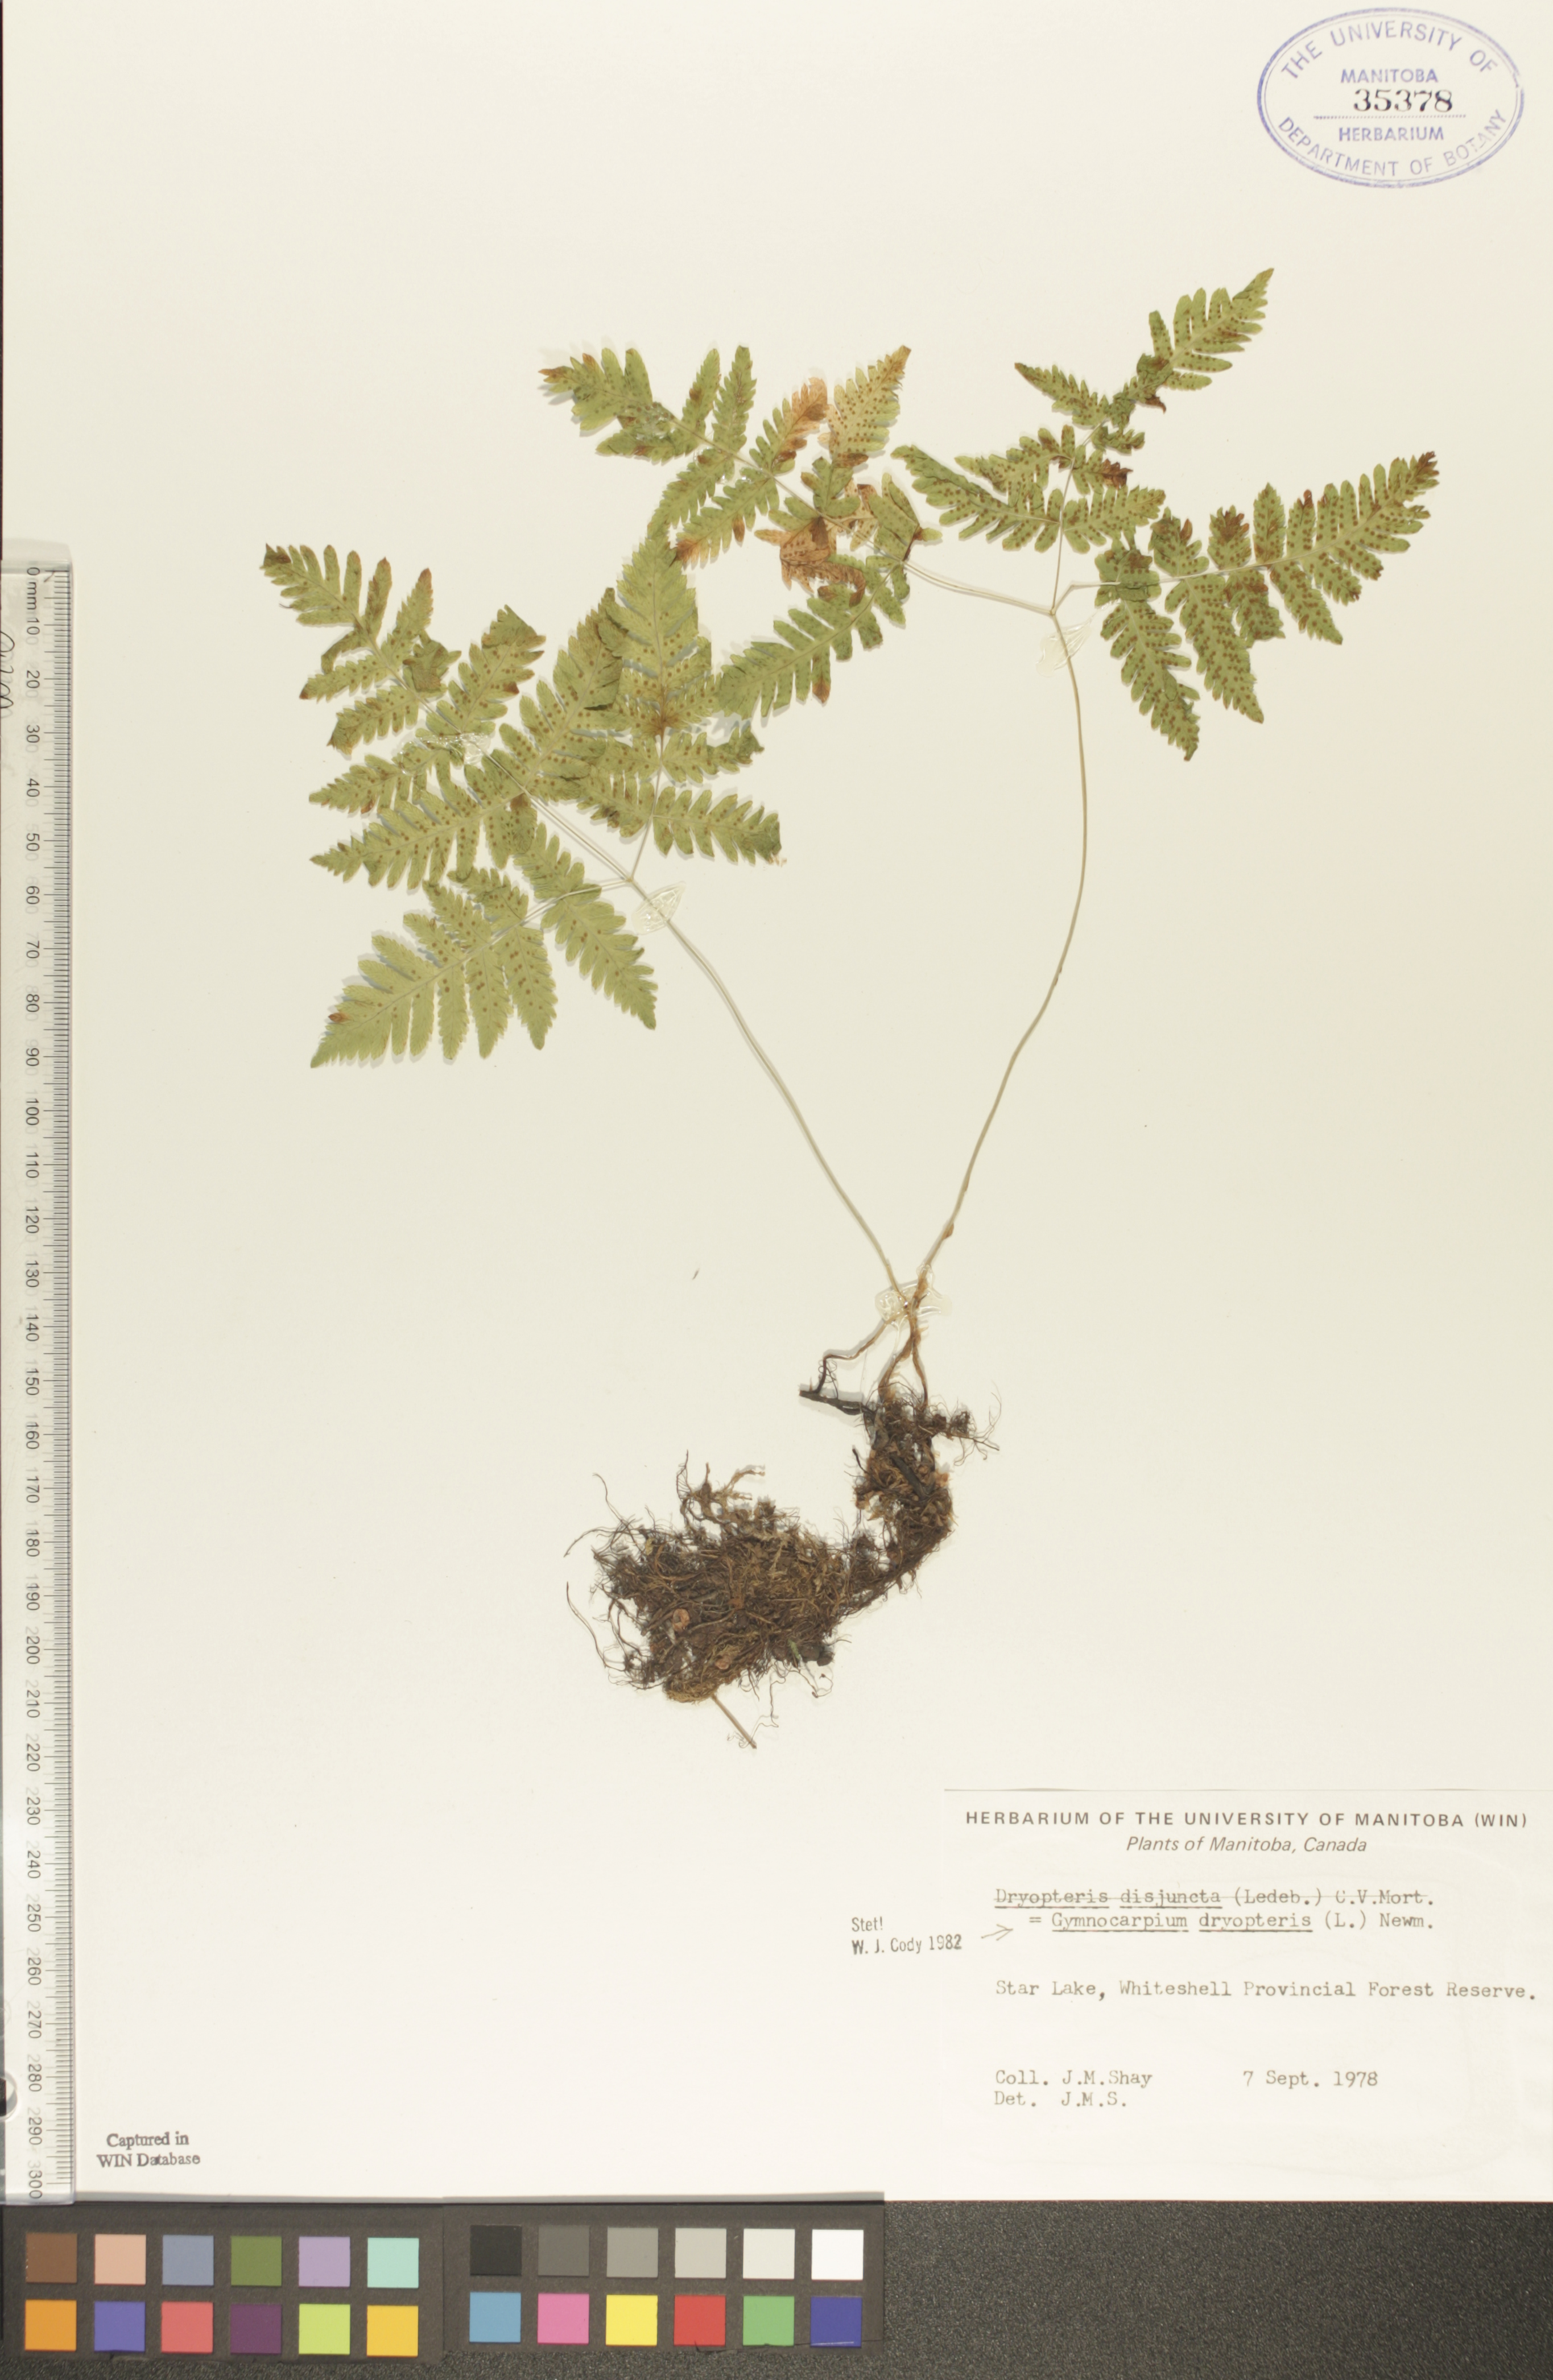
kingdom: Plantae
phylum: Tracheophyta
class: Polypodiopsida
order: Polypodiales
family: Cystopteridaceae
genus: Gymnocarpium
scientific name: Gymnocarpium dryopteris
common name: Oak fern
